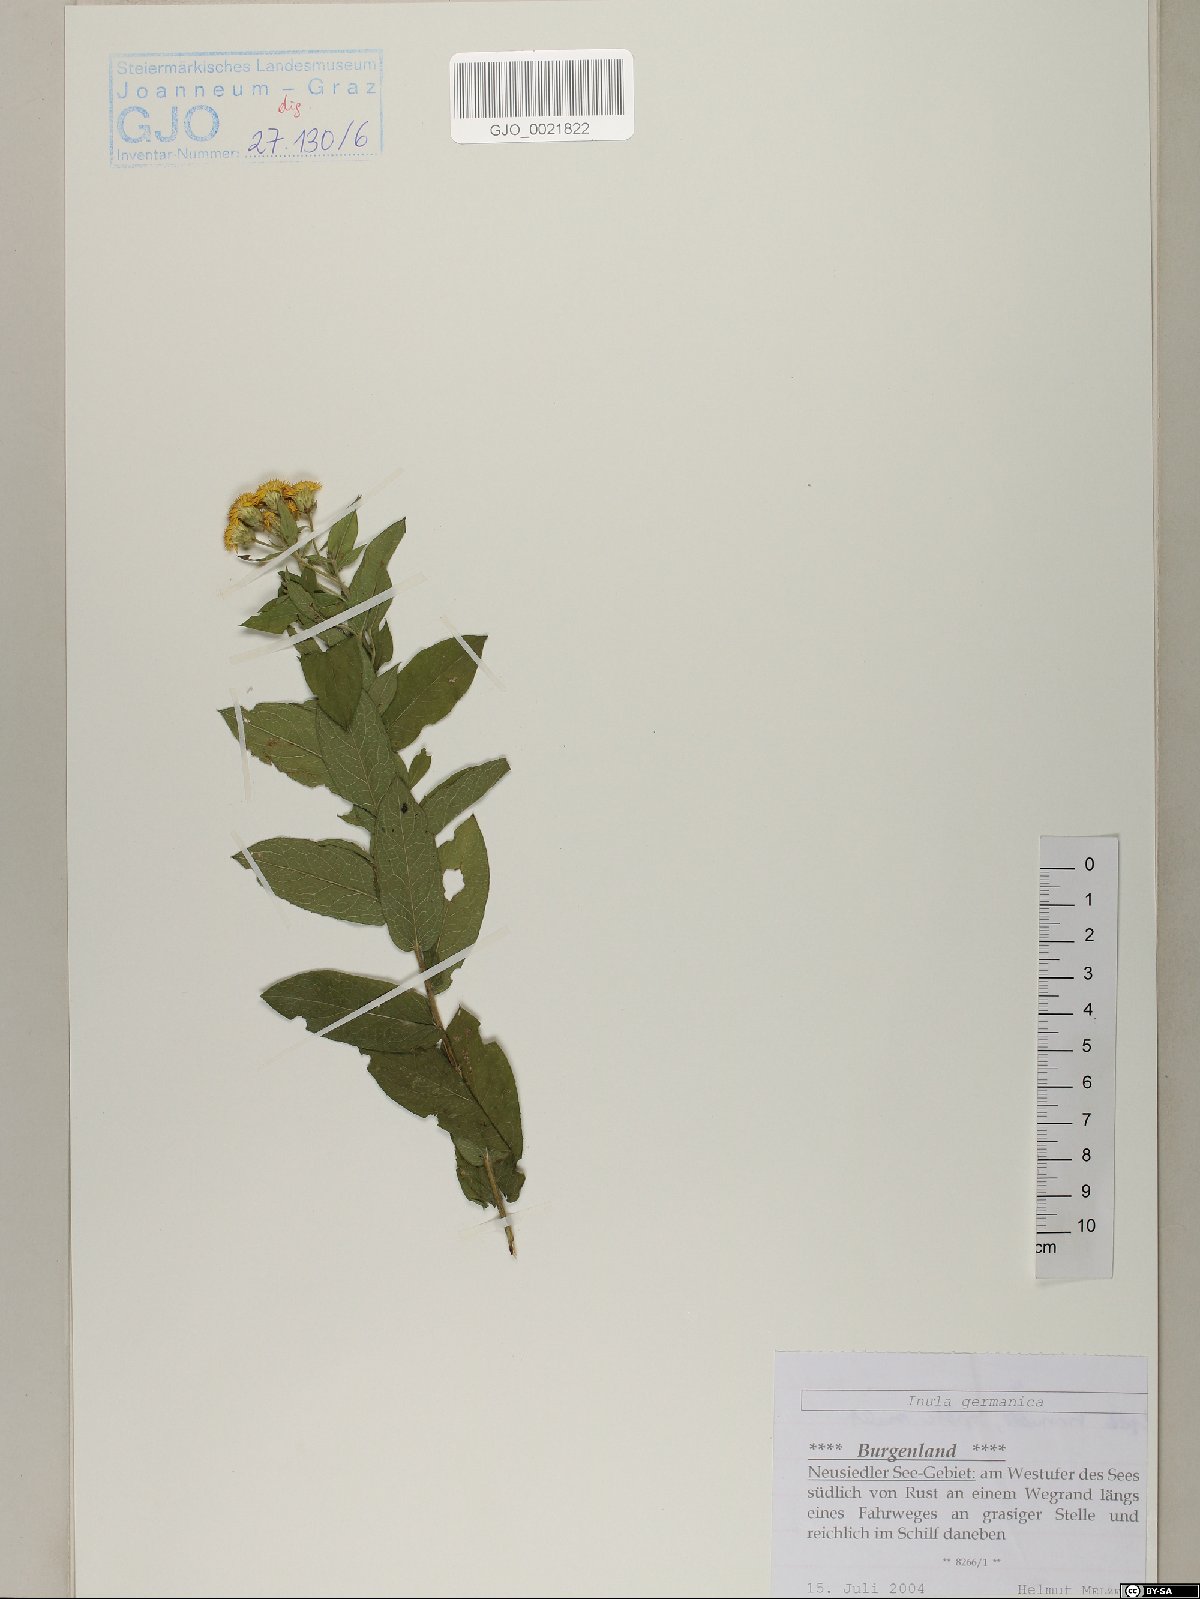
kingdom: Plantae
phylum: Tracheophyta
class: Magnoliopsida
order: Asterales
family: Asteraceae
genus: Pentanema
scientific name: Pentanema germanicum
